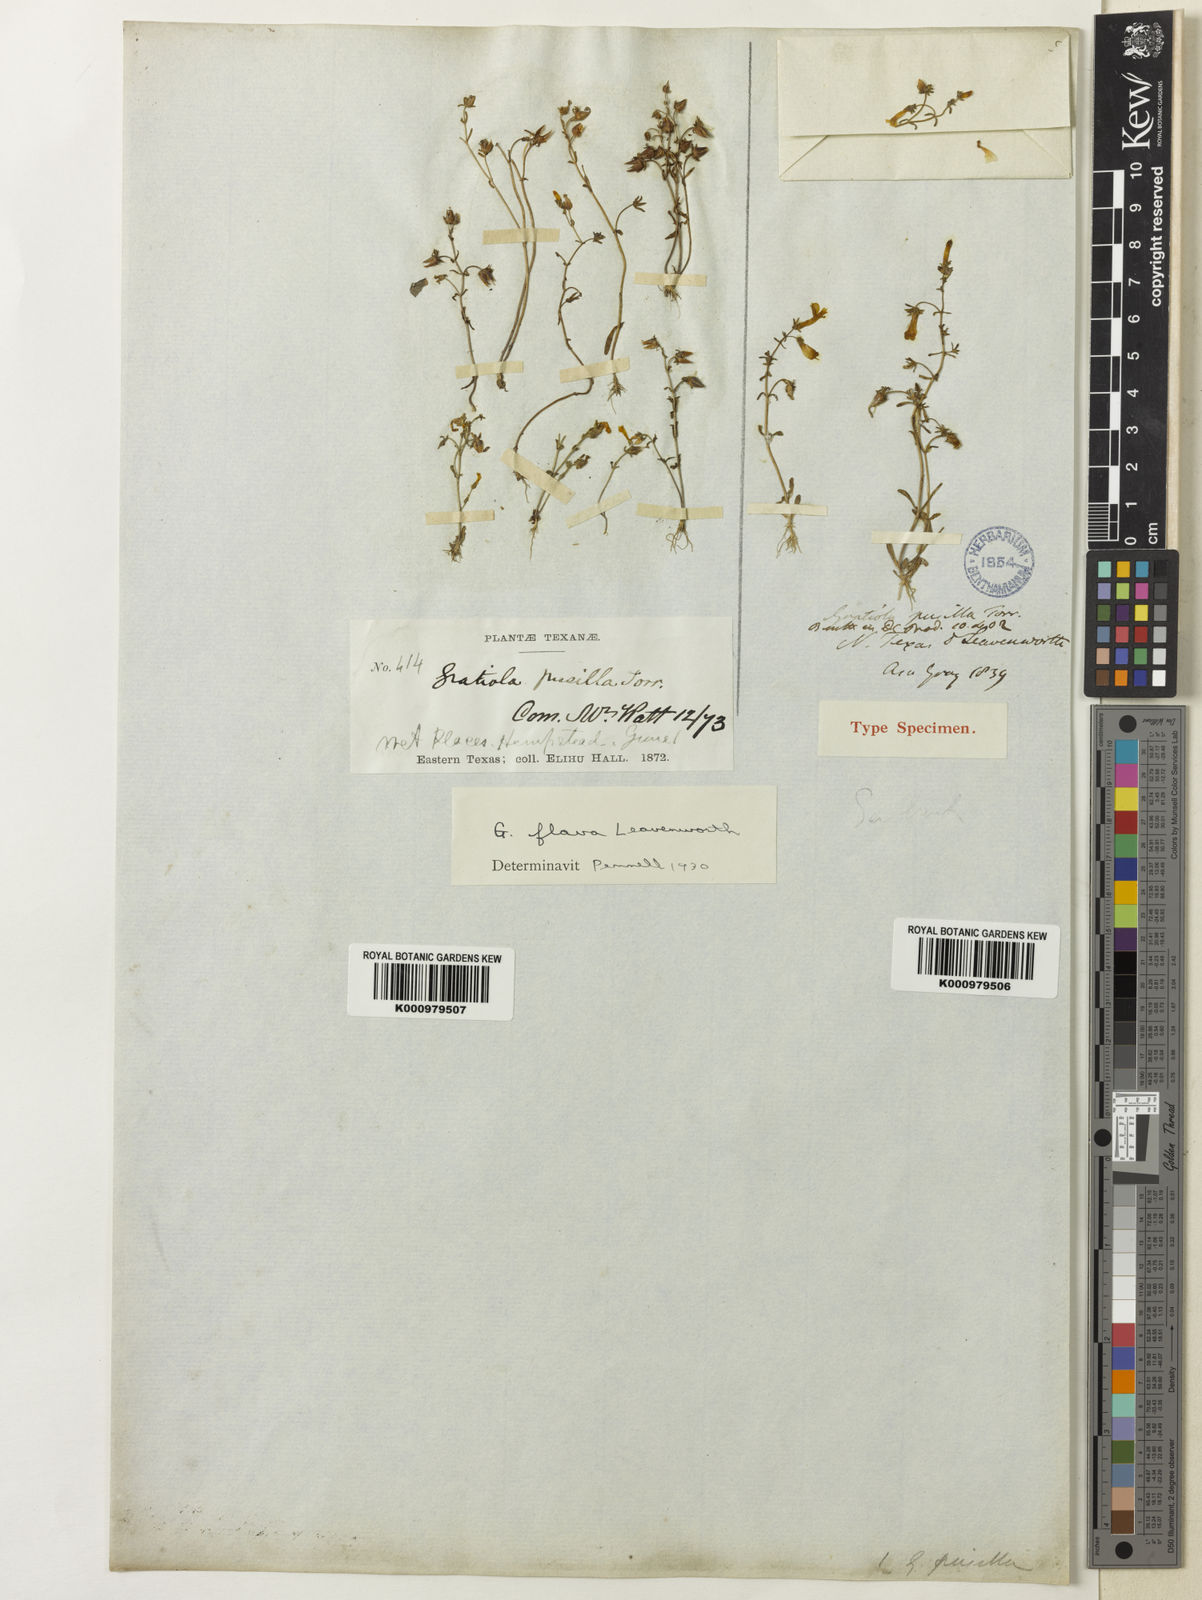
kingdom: Plantae
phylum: Tracheophyta
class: Magnoliopsida
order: Lamiales
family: Plantaginaceae
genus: Gratiola
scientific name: Gratiola torreyi
